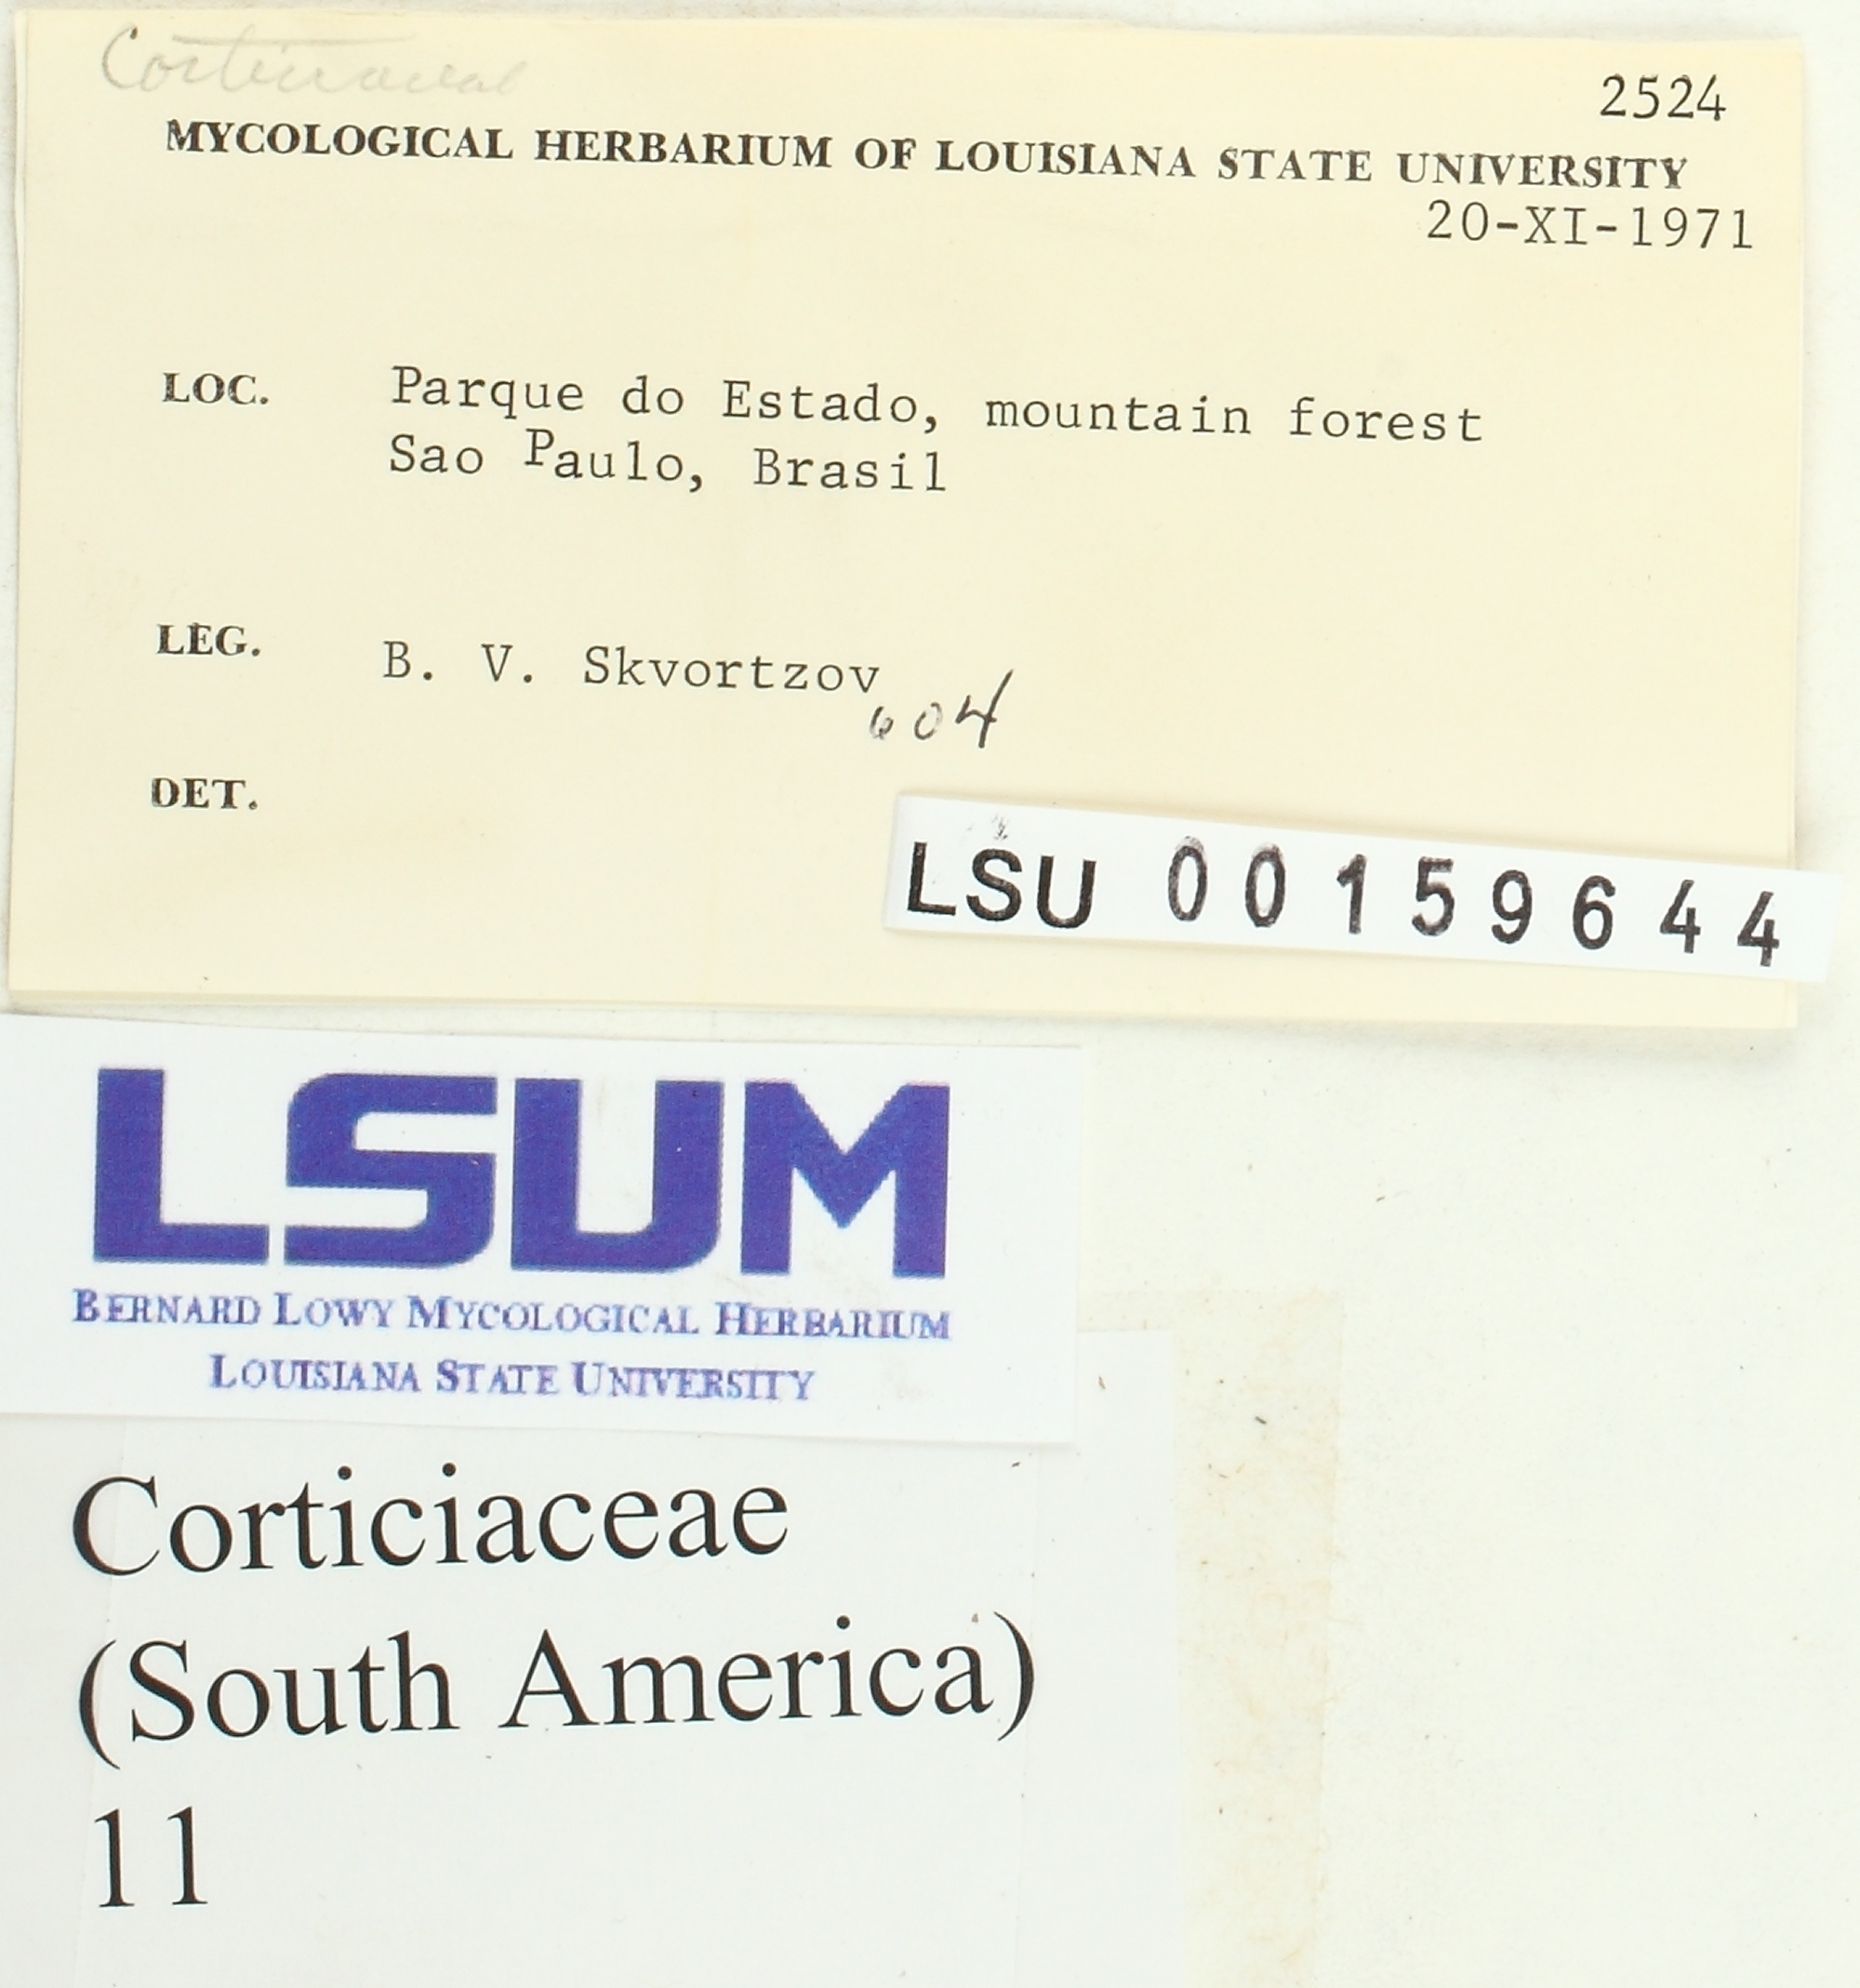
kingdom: Fungi
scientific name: Fungi
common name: Fungi
